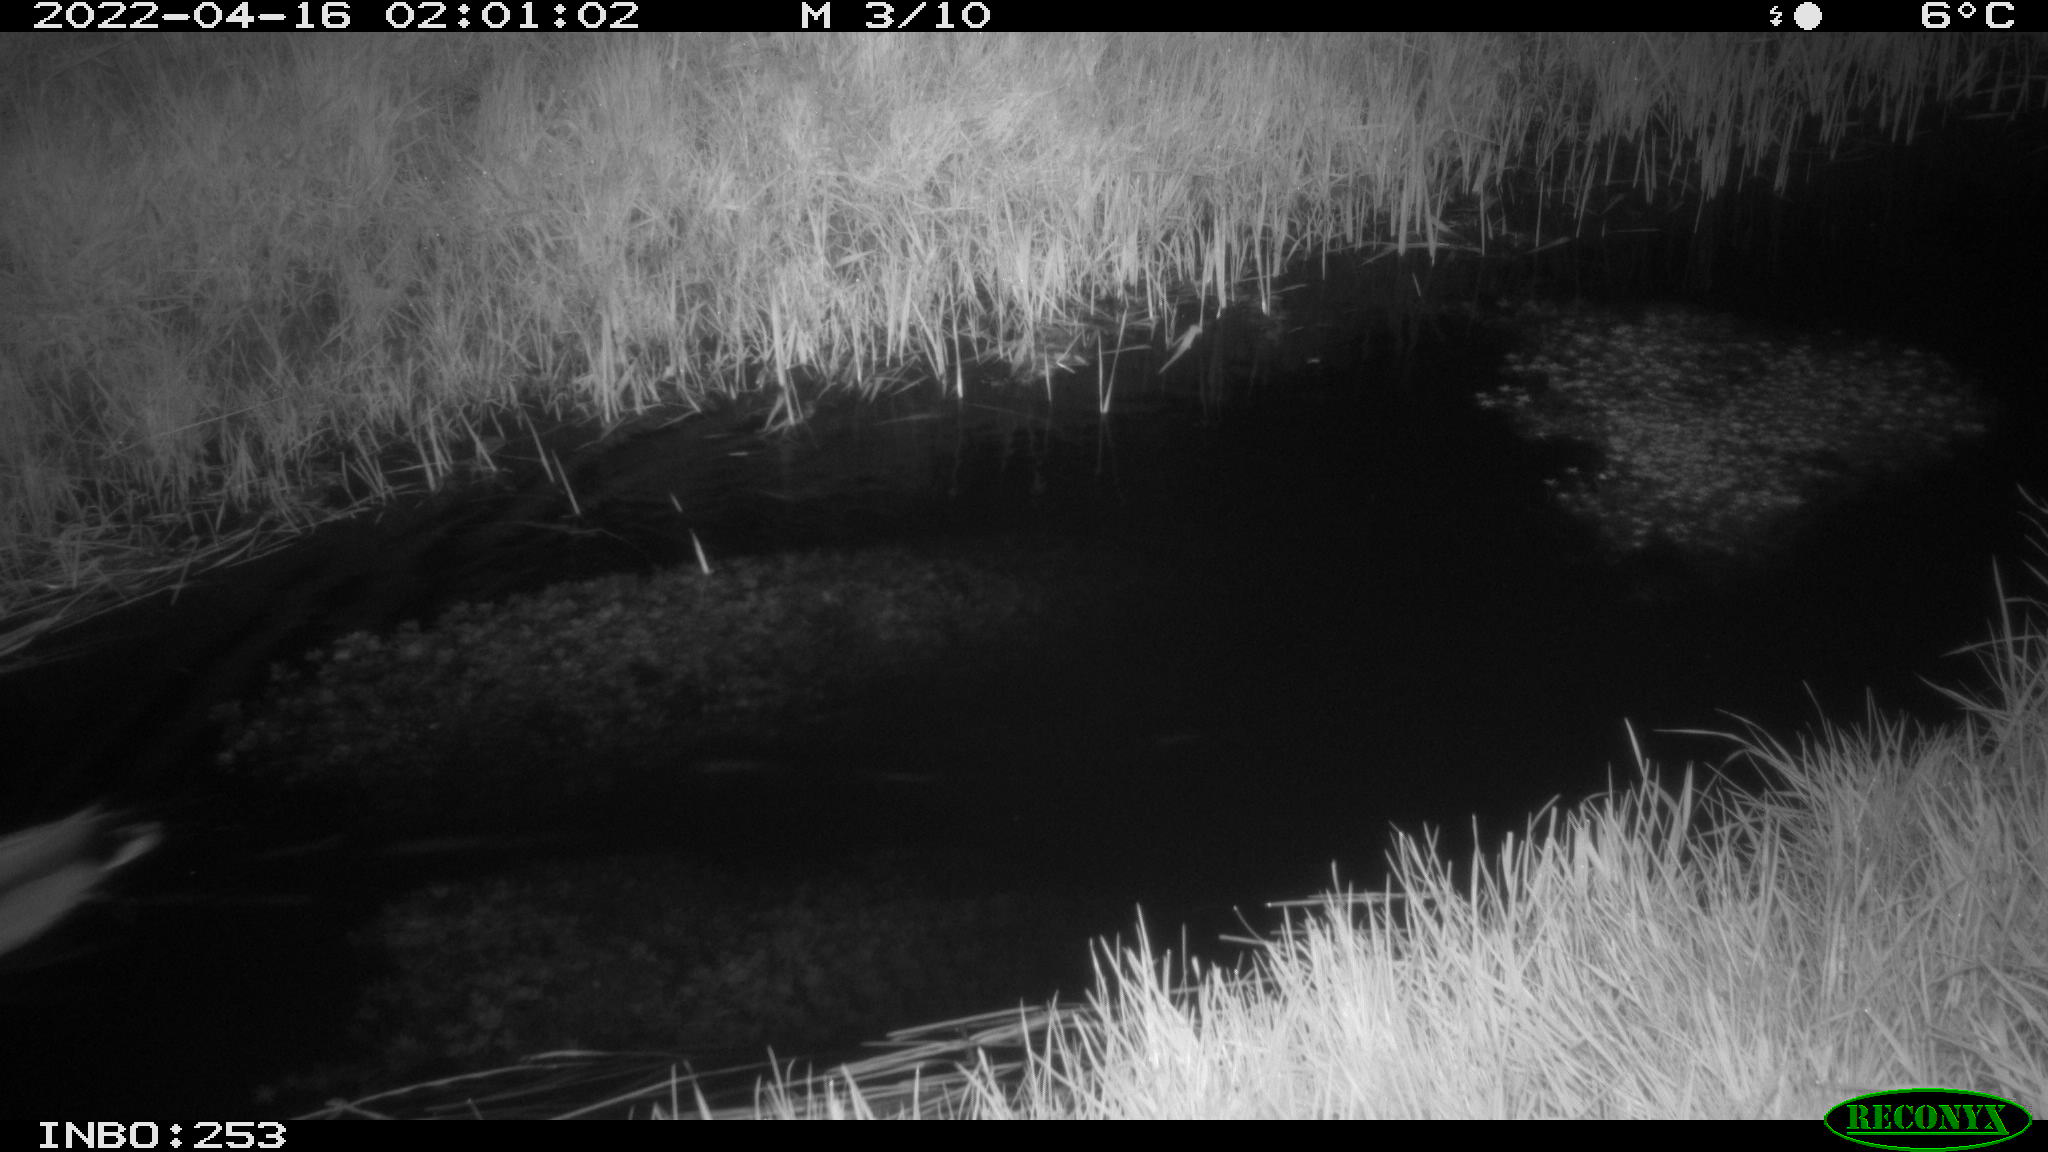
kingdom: Animalia
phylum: Chordata
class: Aves
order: Anseriformes
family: Anatidae
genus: Anas
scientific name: Anas platyrhynchos
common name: Mallard
